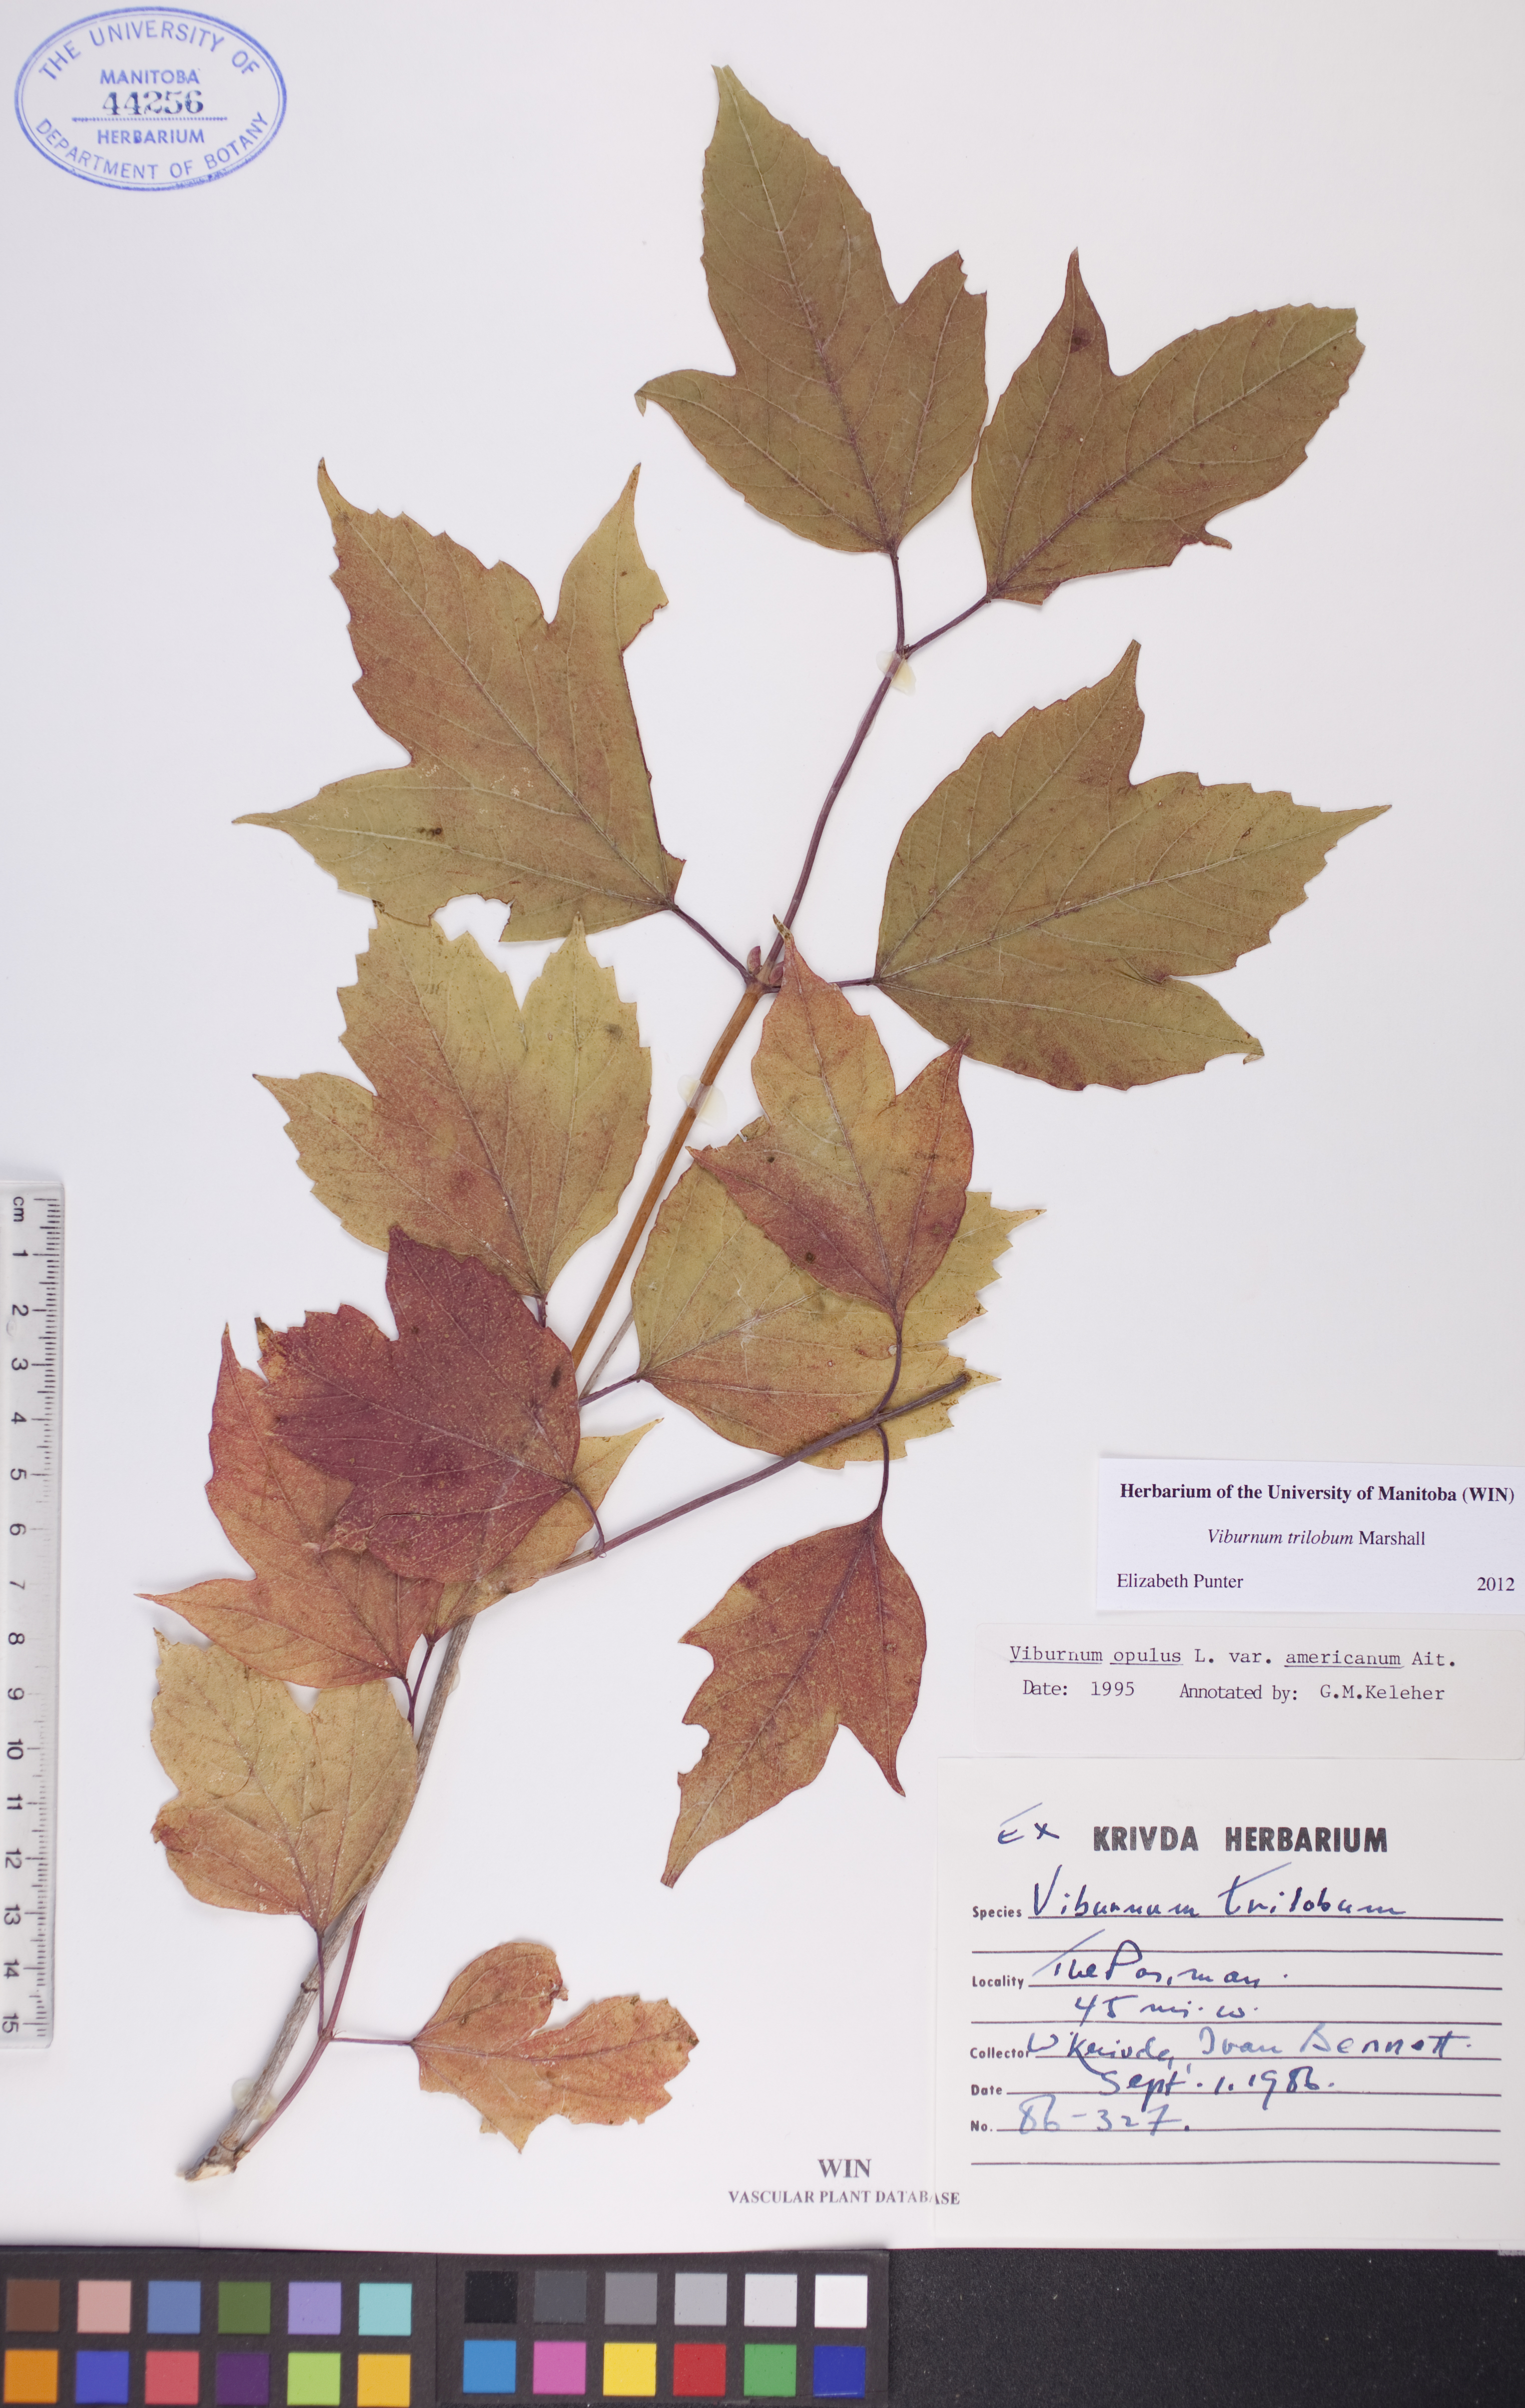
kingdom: Plantae
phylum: Tracheophyta
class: Magnoliopsida
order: Dipsacales
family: Viburnaceae
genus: Viburnum
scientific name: Viburnum trilobum
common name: American cranberrybush
